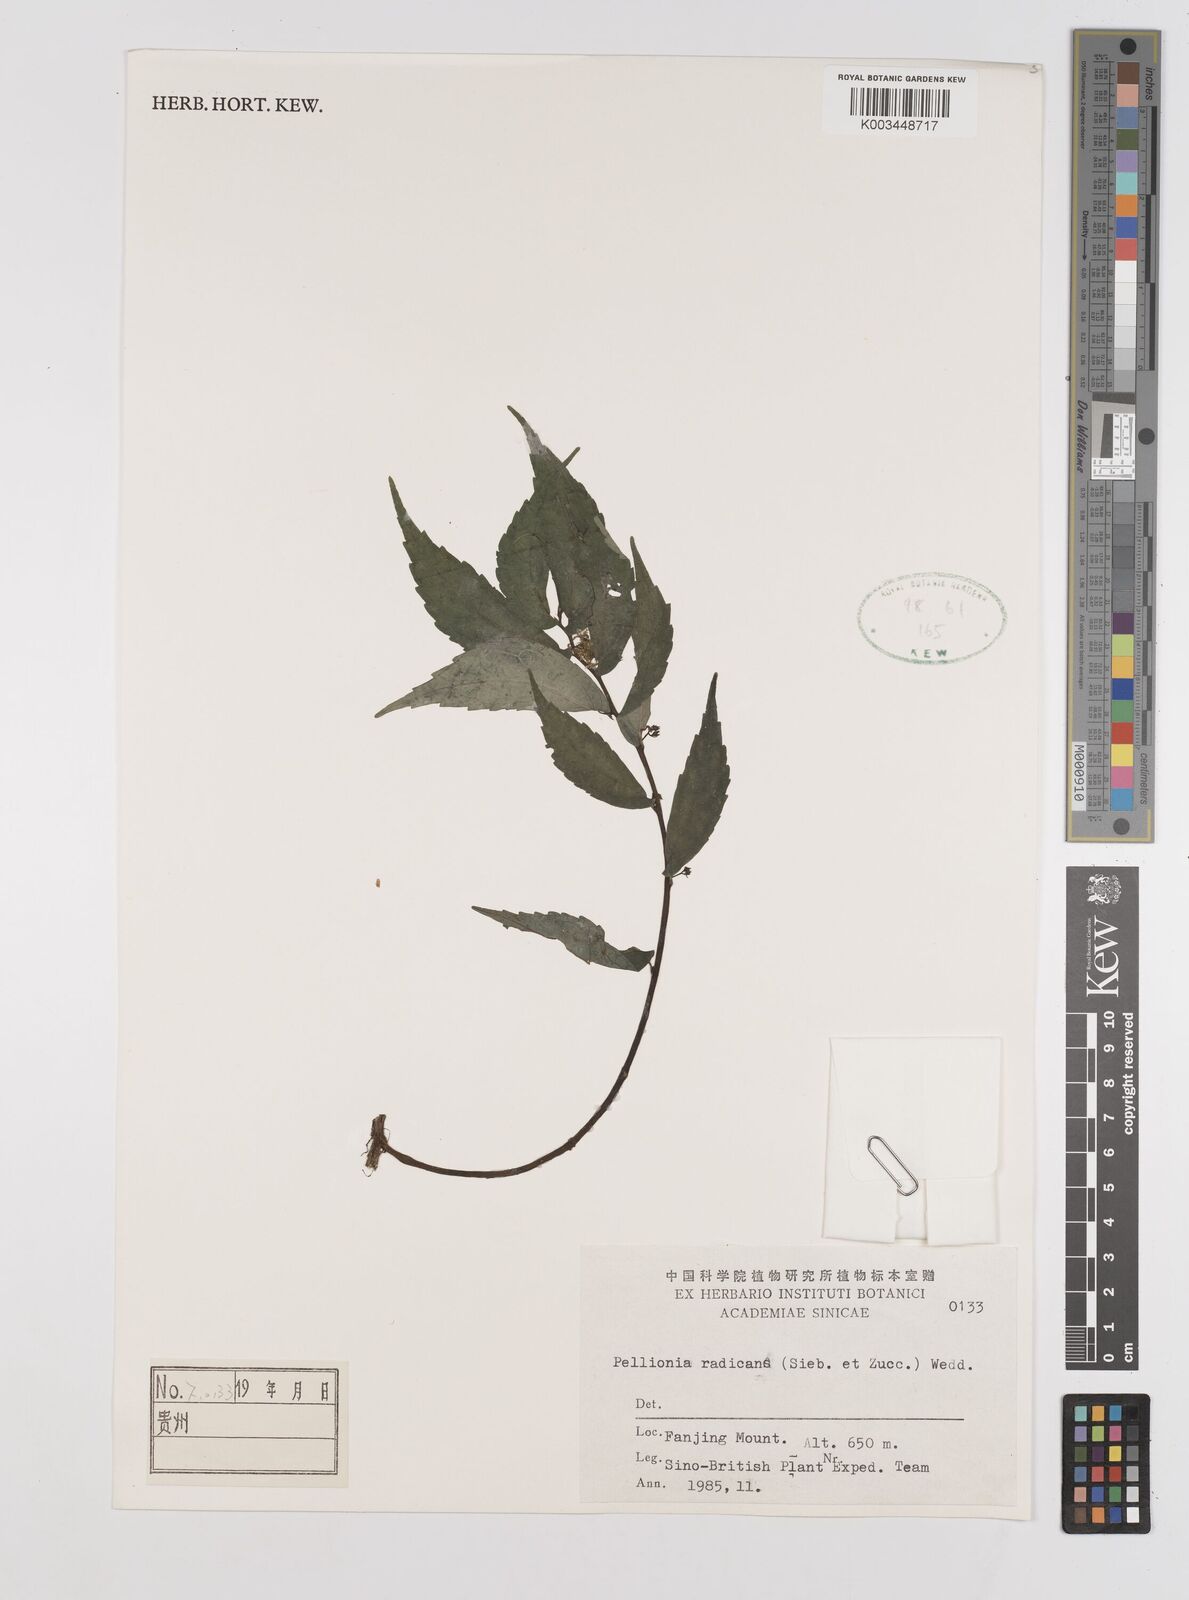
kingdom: Plantae
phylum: Tracheophyta
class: Magnoliopsida
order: Rosales
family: Urticaceae
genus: Elatostema
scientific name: Elatostema radicans
